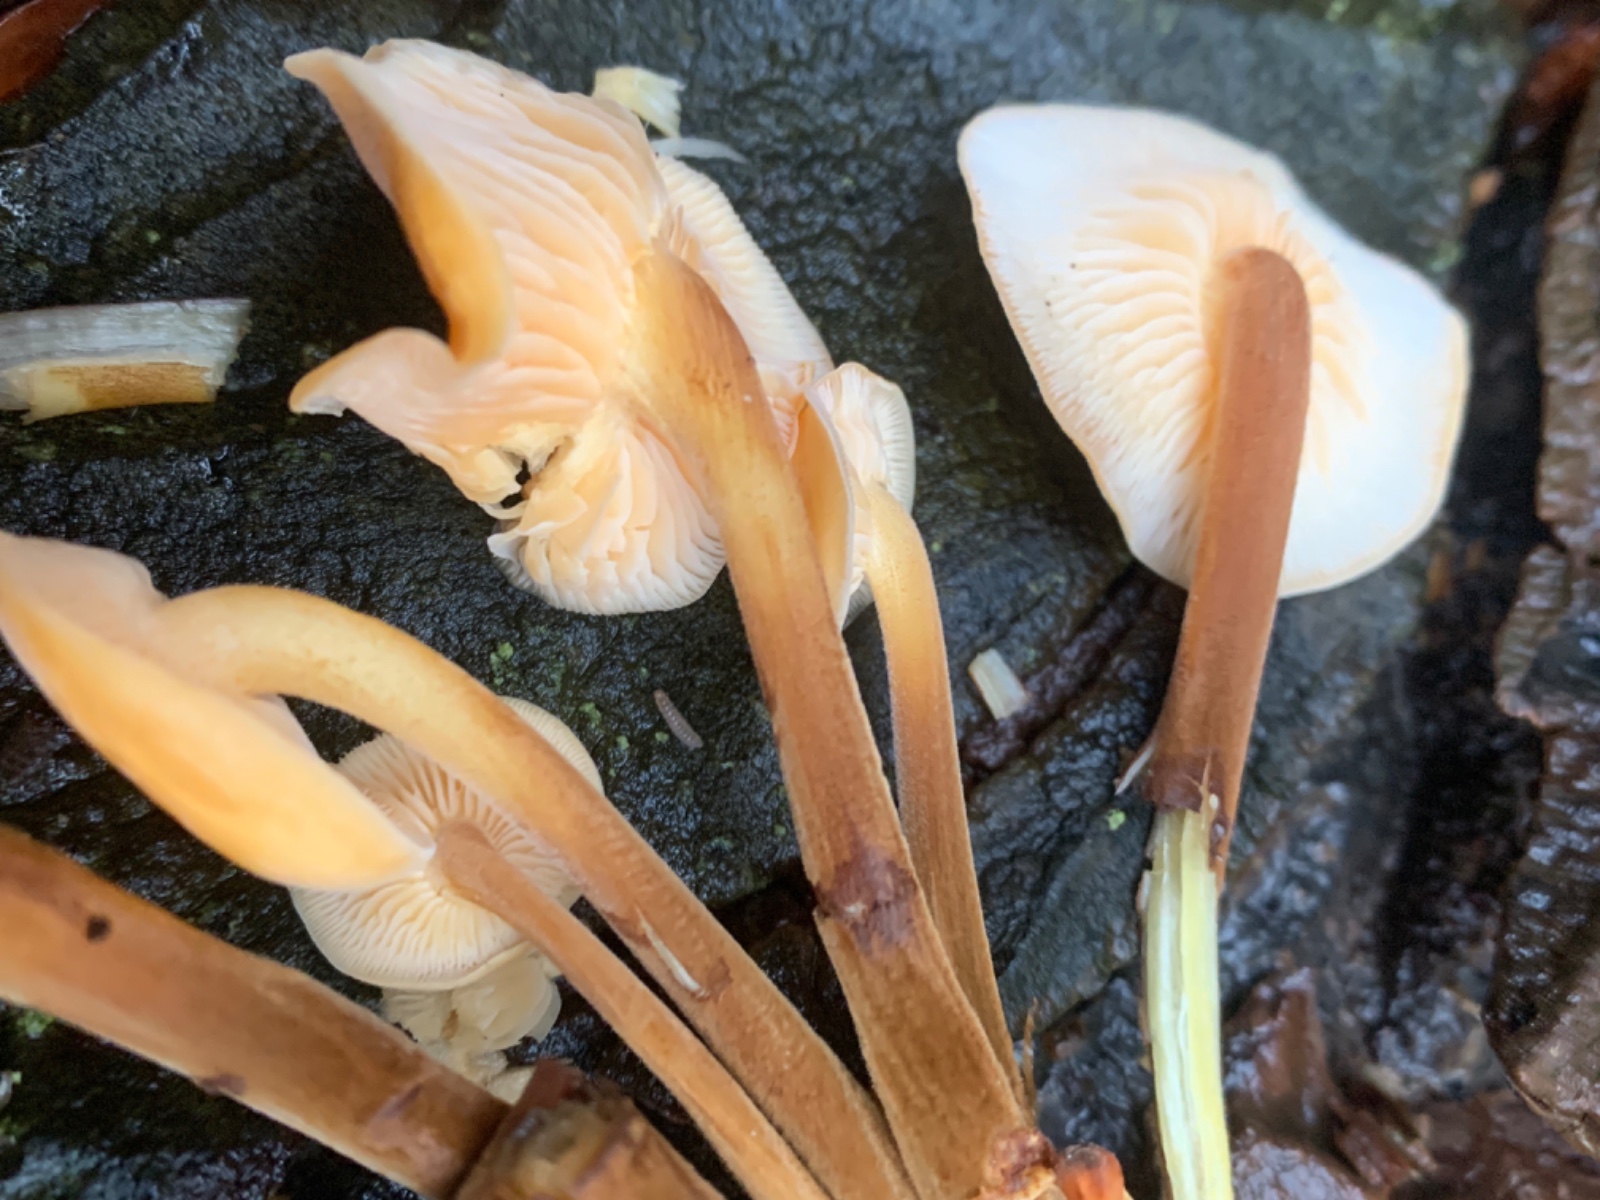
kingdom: Fungi
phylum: Basidiomycota
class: Agaricomycetes
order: Agaricales
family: Physalacriaceae
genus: Flammulina
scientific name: Flammulina velutipes
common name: gul fløjlsfod
